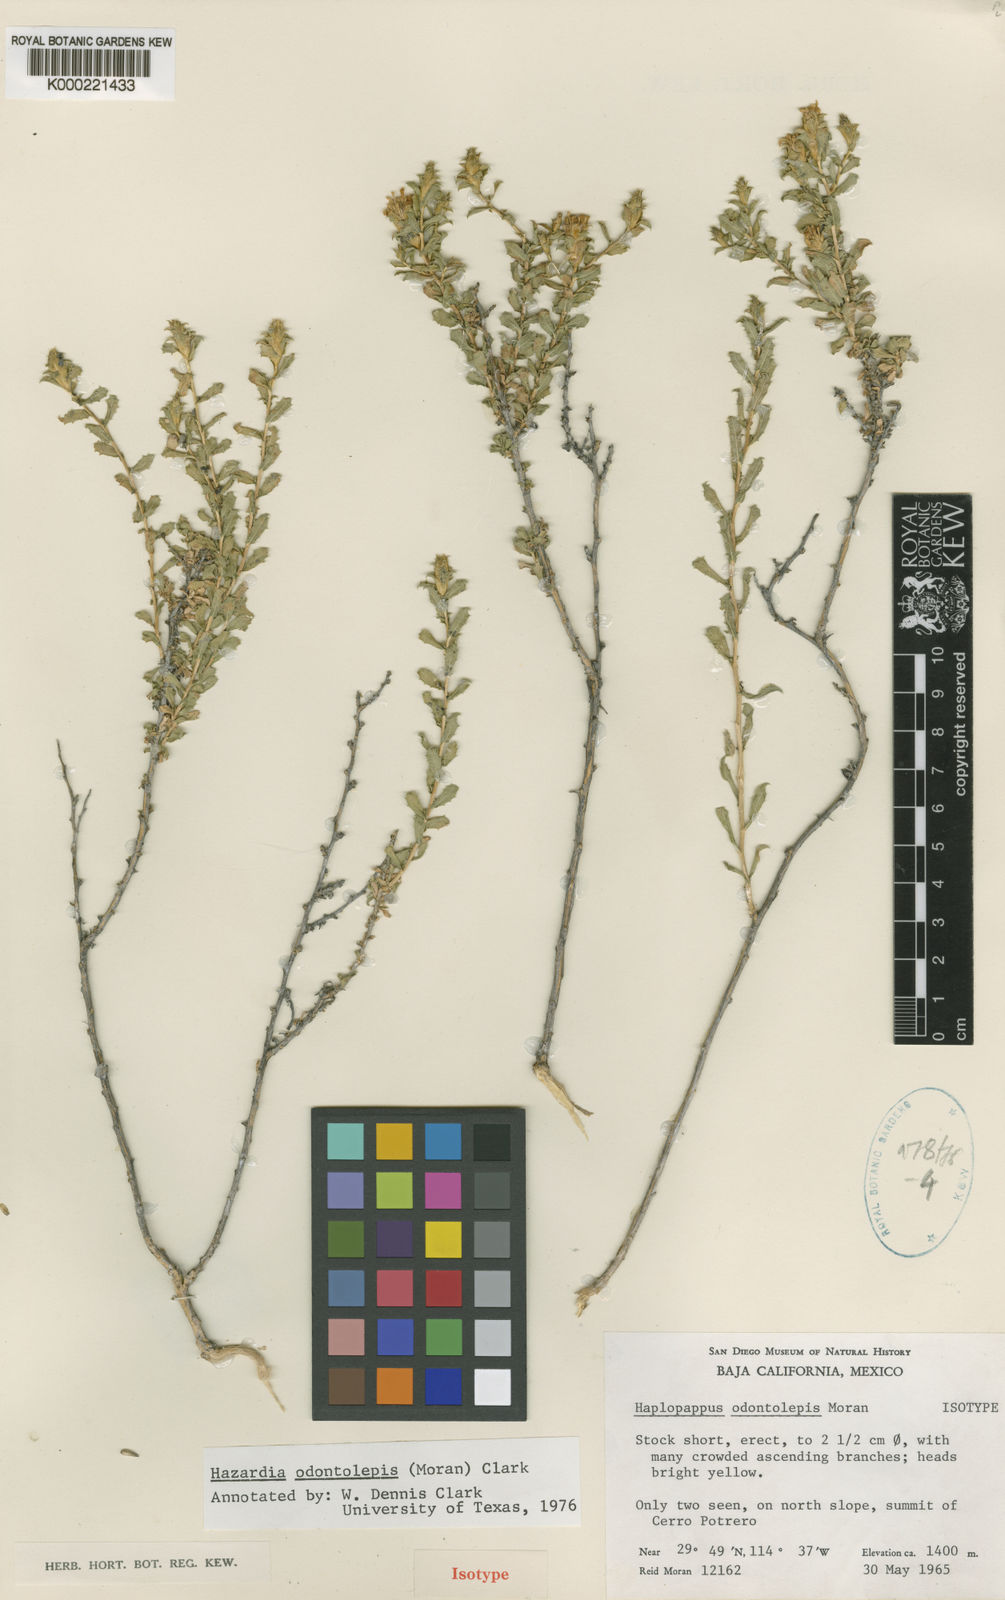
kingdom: Plantae
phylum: Tracheophyta
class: Magnoliopsida
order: Asterales
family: Asteraceae
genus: Hazardia
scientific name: Hazardia odontolepis
